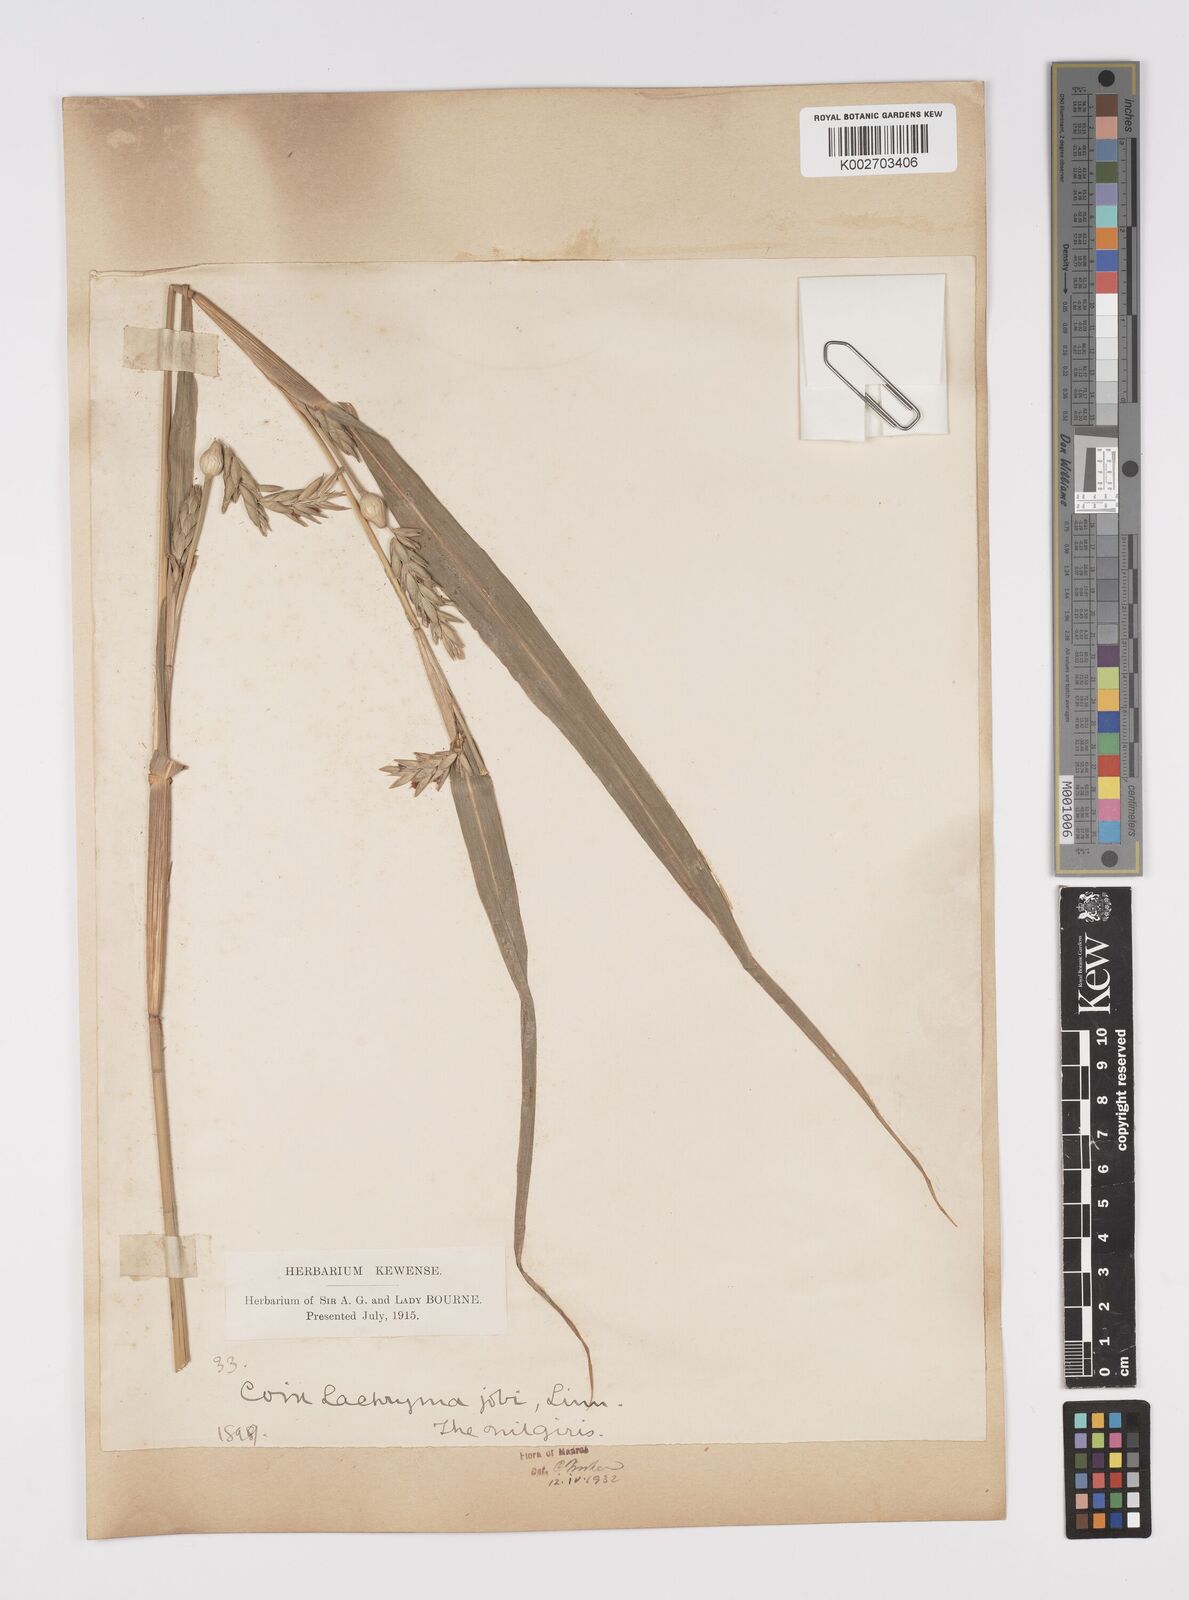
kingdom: Plantae
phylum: Tracheophyta
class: Liliopsida
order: Poales
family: Poaceae
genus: Coix
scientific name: Coix lacryma-jobi
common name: Job's tears
